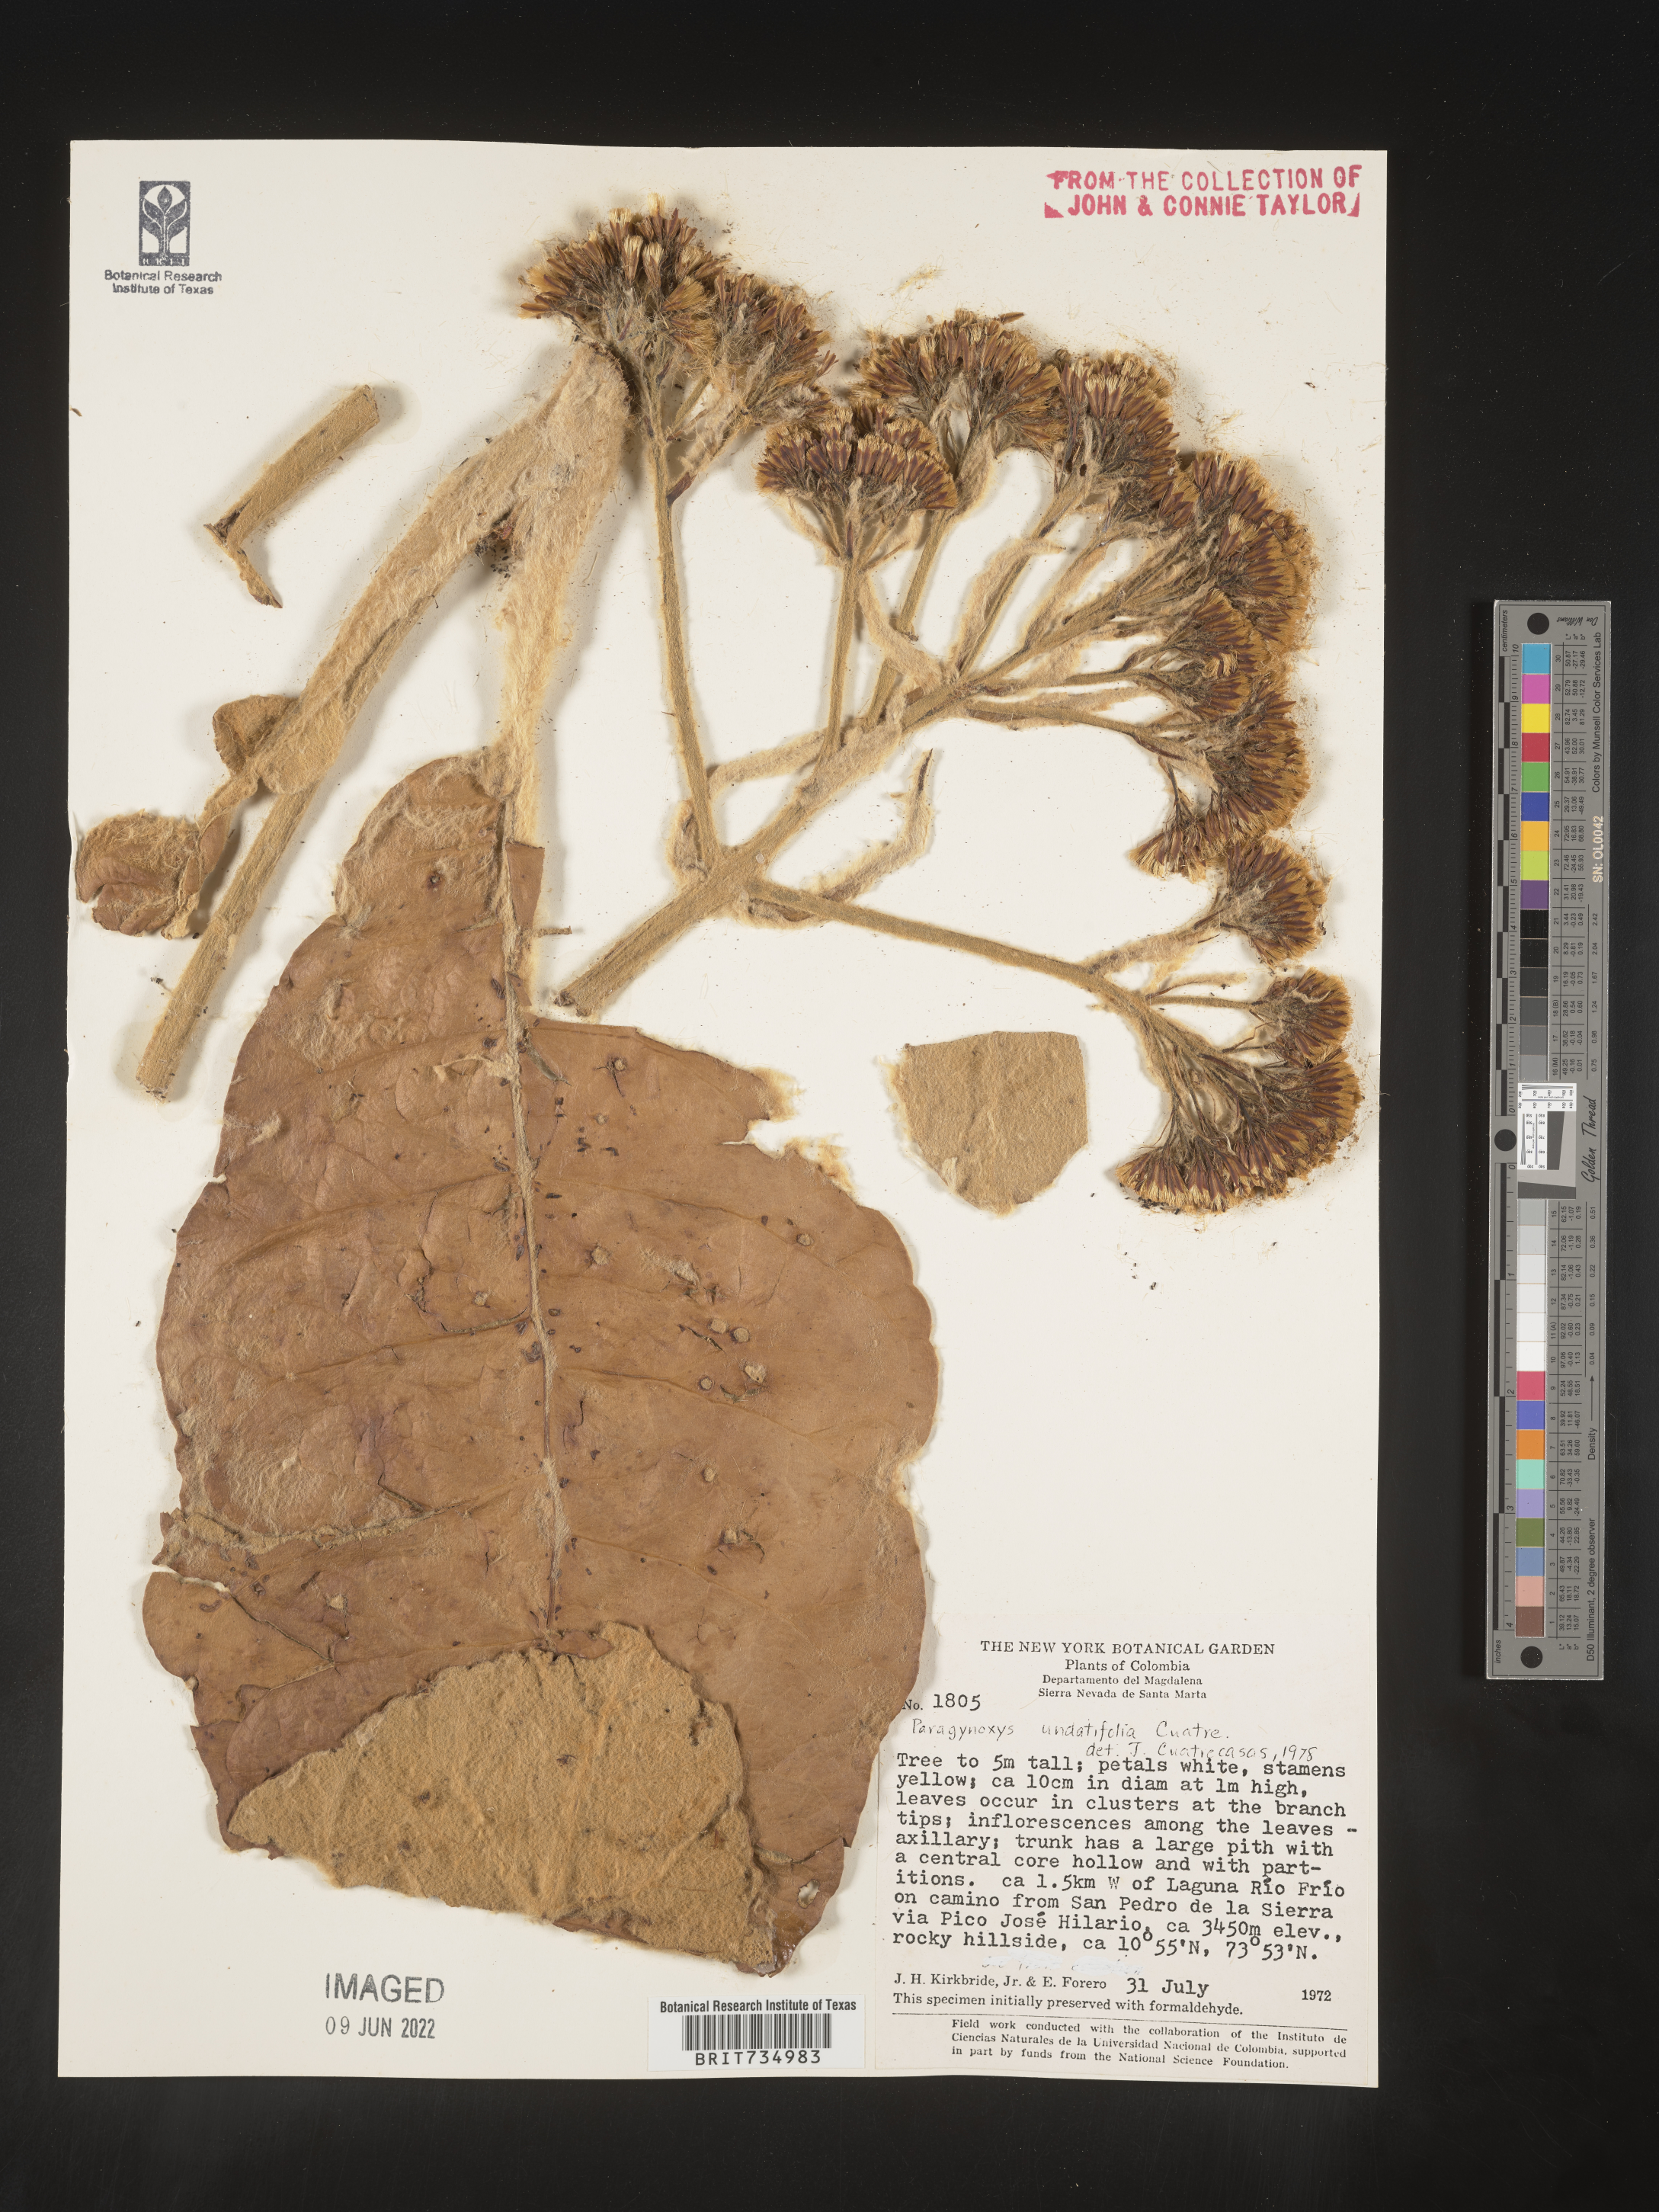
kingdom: Plantae
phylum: Tracheophyta
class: Magnoliopsida
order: Asterales
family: Asteraceae
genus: Paragynoxys
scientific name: Paragynoxys
